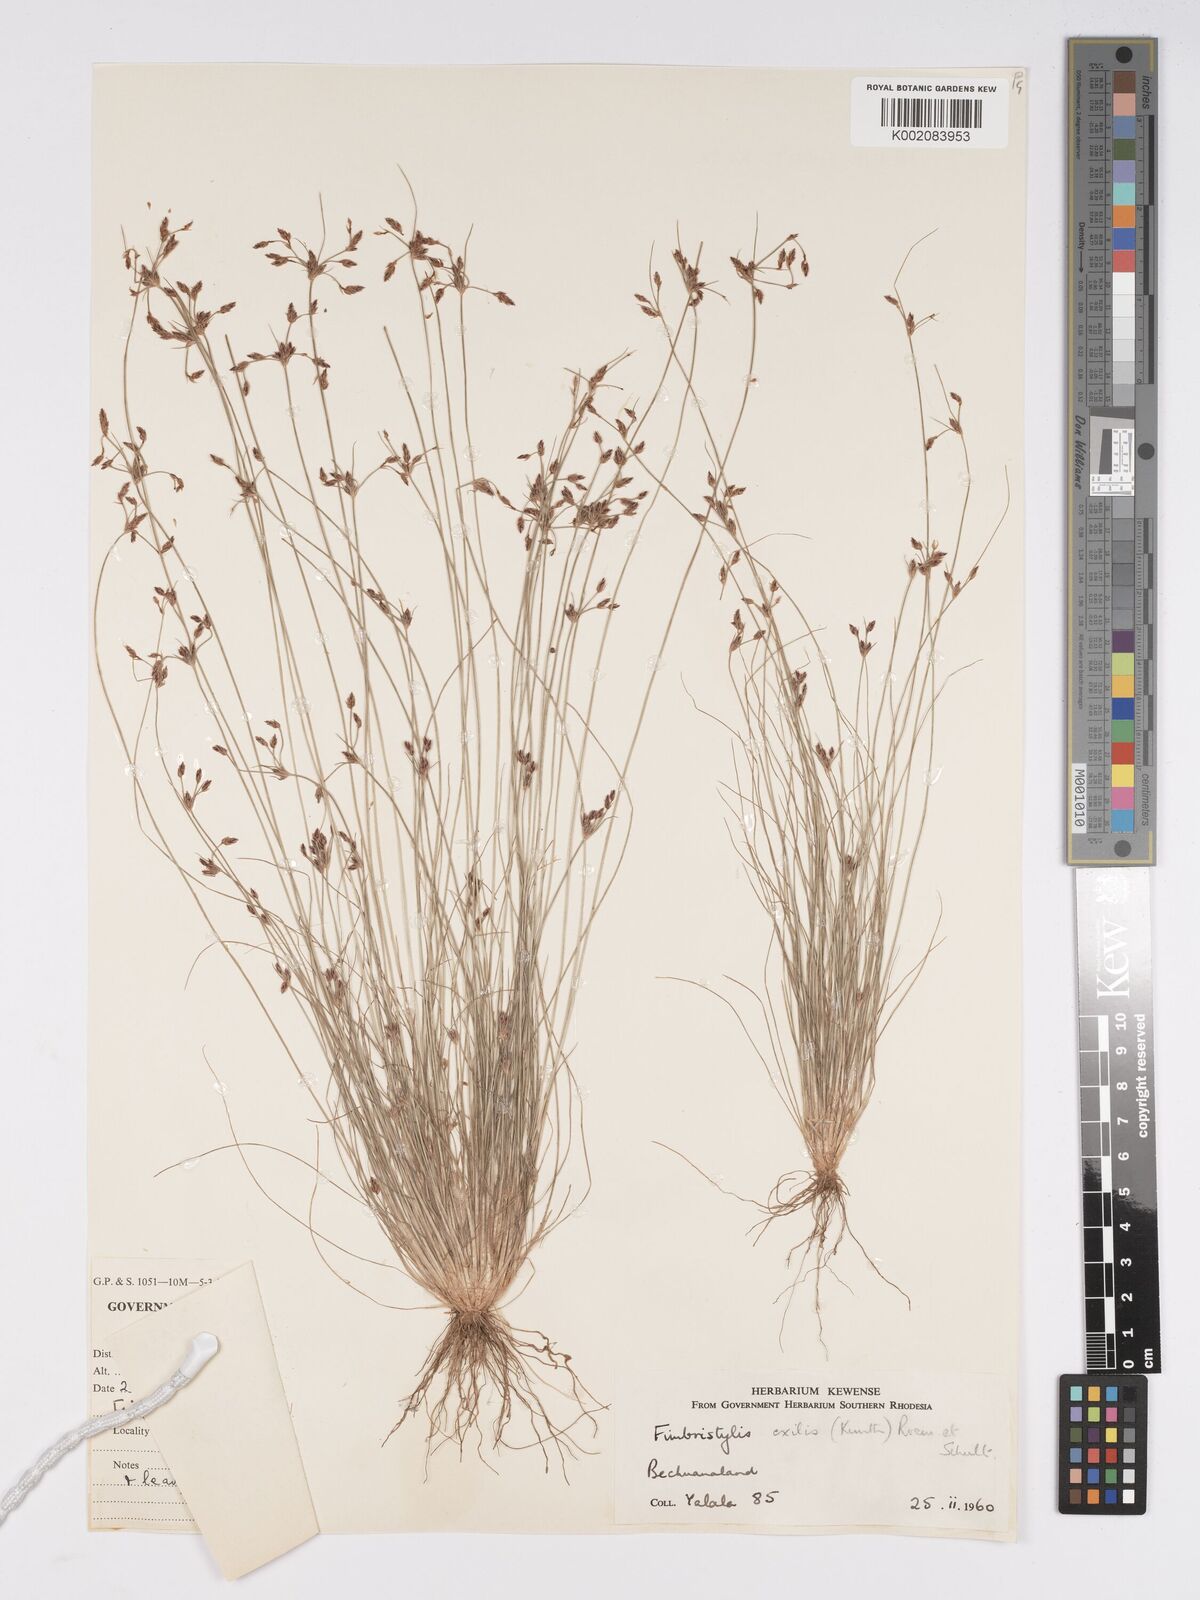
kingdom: Plantae
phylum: Tracheophyta
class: Liliopsida
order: Poales
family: Cyperaceae
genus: Bulbostylis
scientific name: Bulbostylis hispidula
